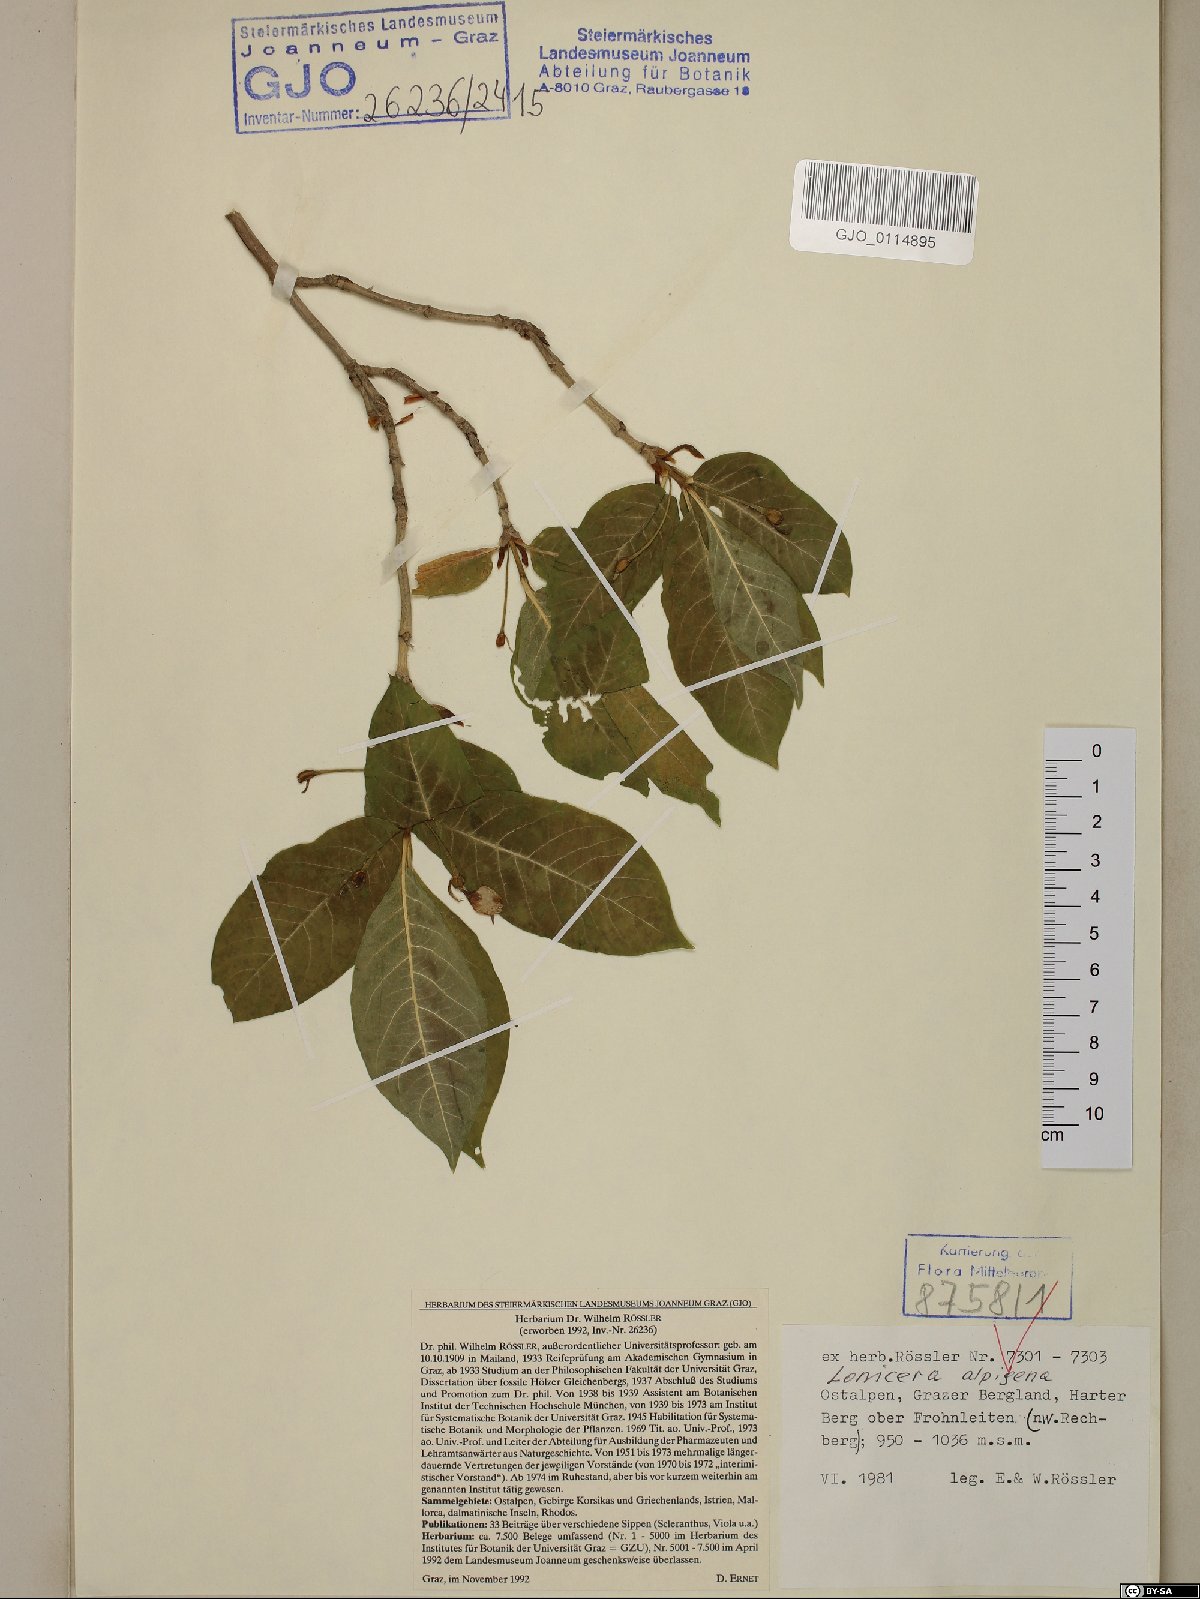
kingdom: Plantae
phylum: Tracheophyta
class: Magnoliopsida
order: Dipsacales
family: Caprifoliaceae
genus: Lonicera
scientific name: Lonicera alpigena
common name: Alpine honeysuckle
